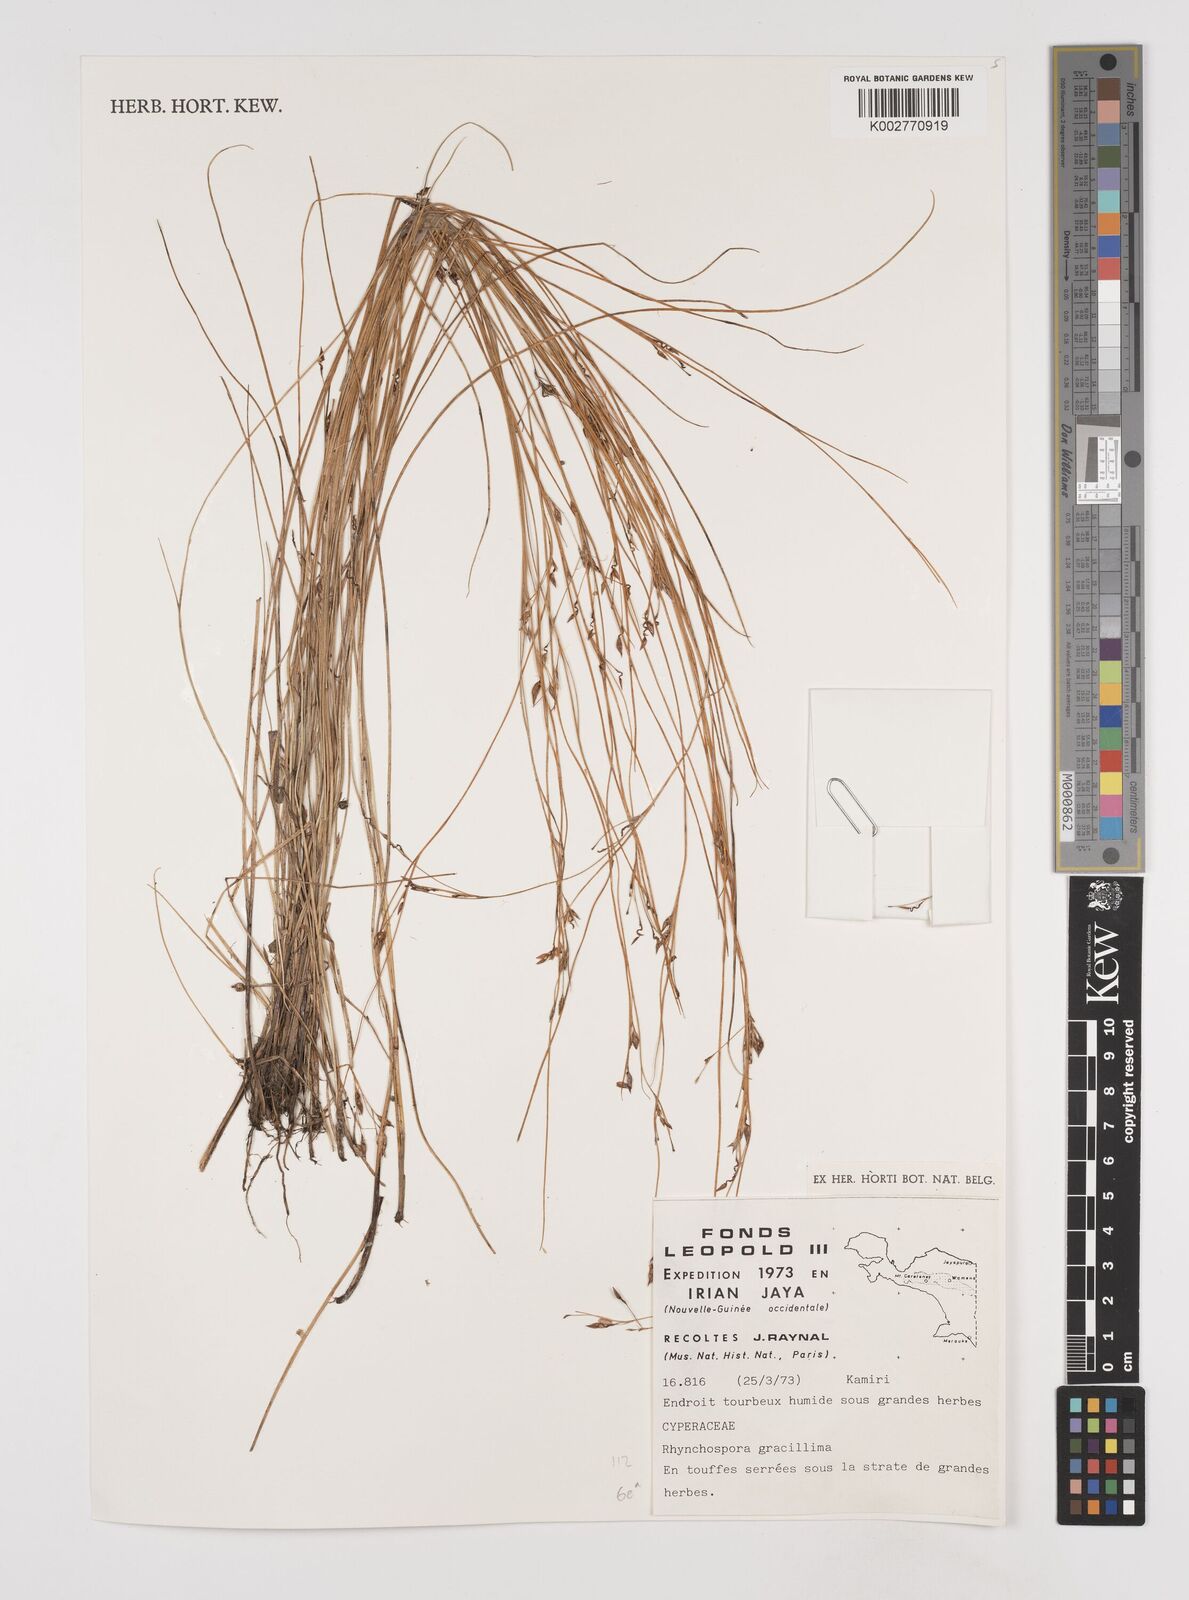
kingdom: Plantae
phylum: Tracheophyta
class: Liliopsida
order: Poales
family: Cyperaceae
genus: Rhynchospora
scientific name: Rhynchospora gracillima
